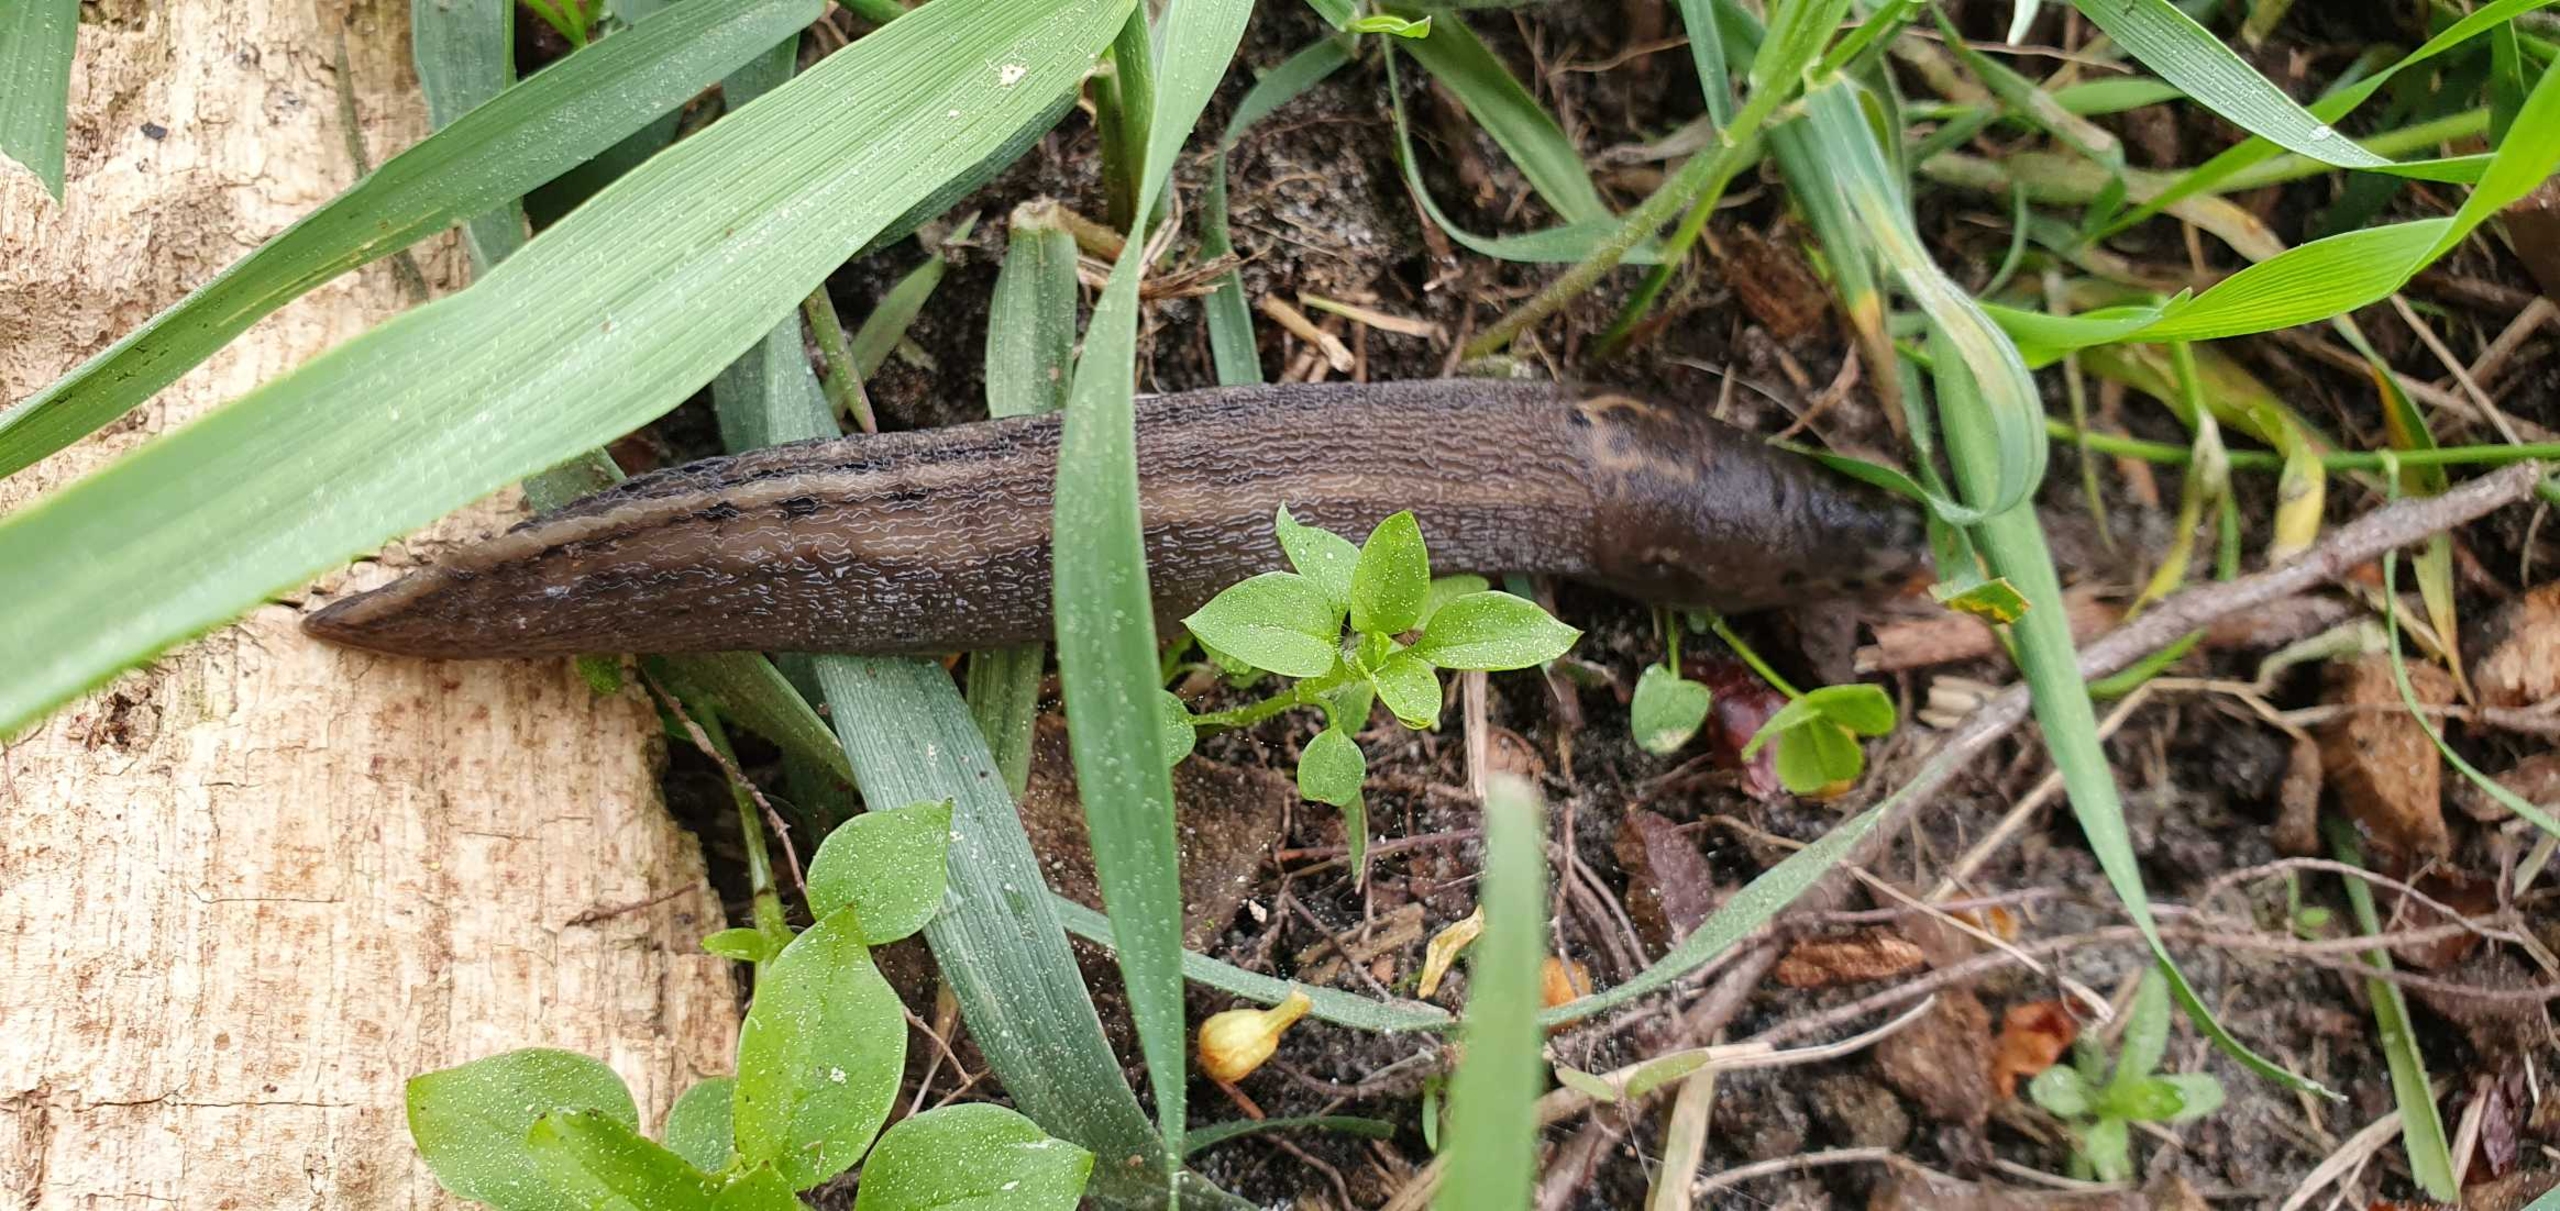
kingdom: Animalia
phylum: Mollusca
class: Gastropoda
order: Stylommatophora
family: Limacidae
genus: Limax
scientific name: Limax maximus
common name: Pantersnegl
